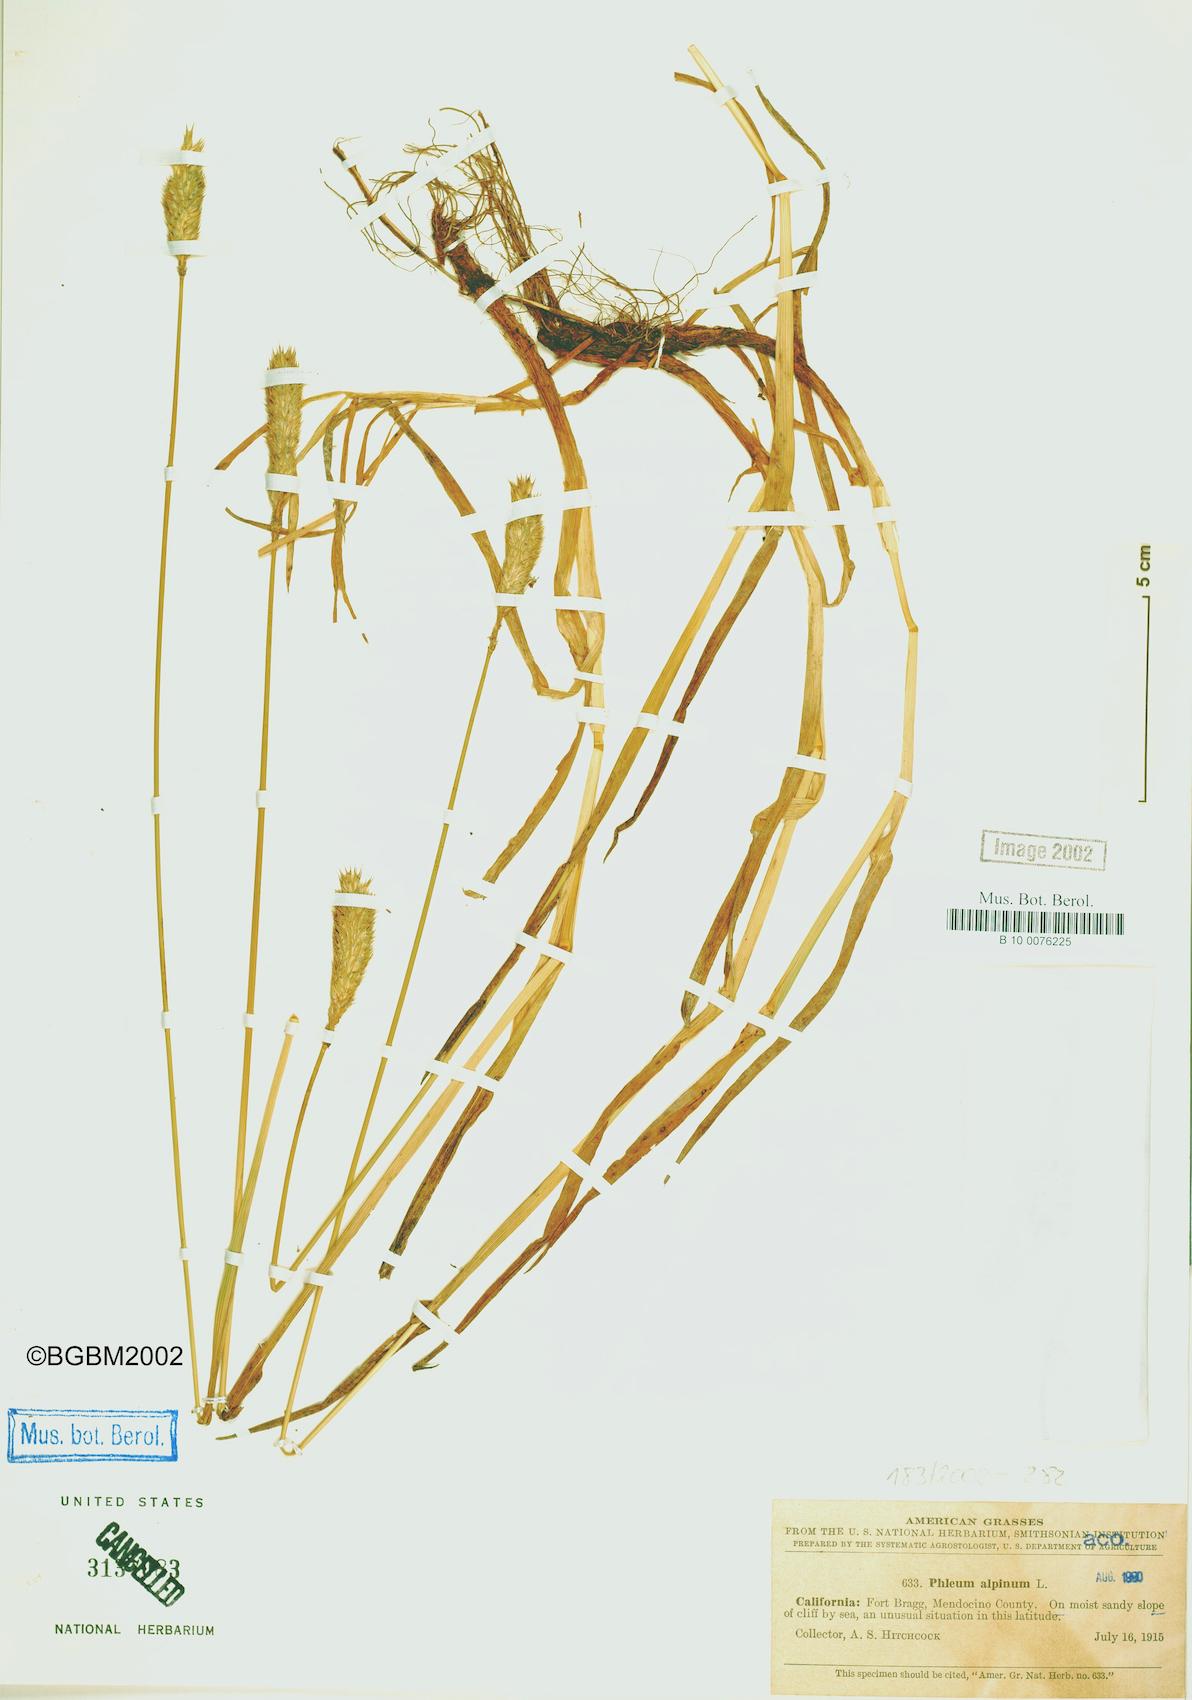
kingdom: Plantae
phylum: Tracheophyta
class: Liliopsida
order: Poales
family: Poaceae
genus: Phleum
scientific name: Phleum alpinum
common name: Alpine cat's-tail
